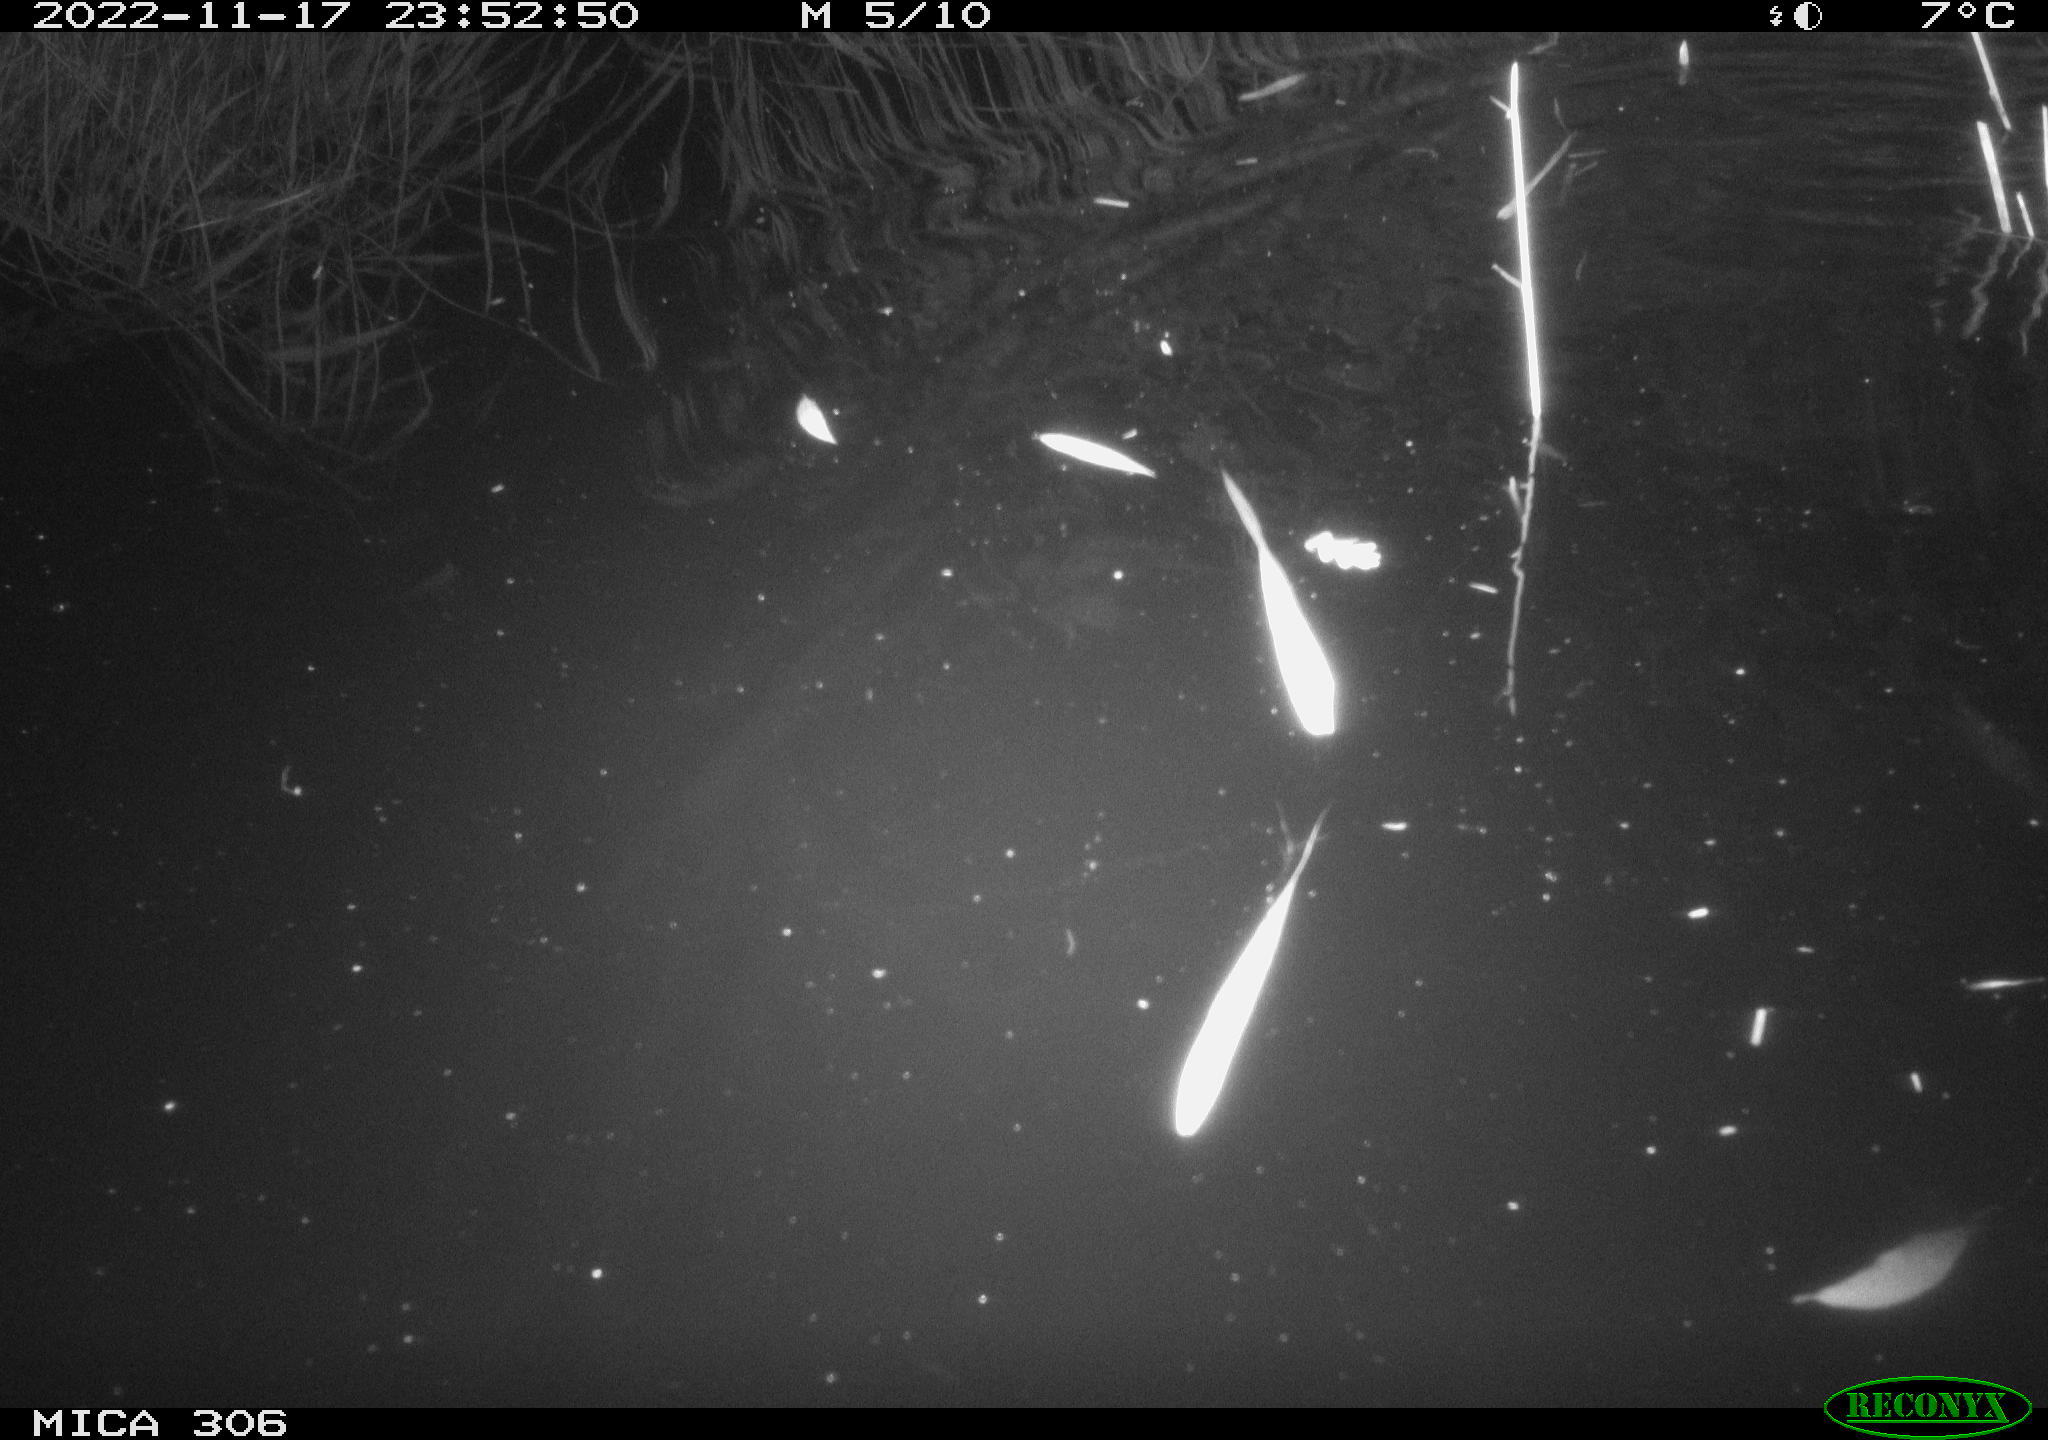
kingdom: Animalia
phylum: Chordata
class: Mammalia
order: Rodentia
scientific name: Rodentia
